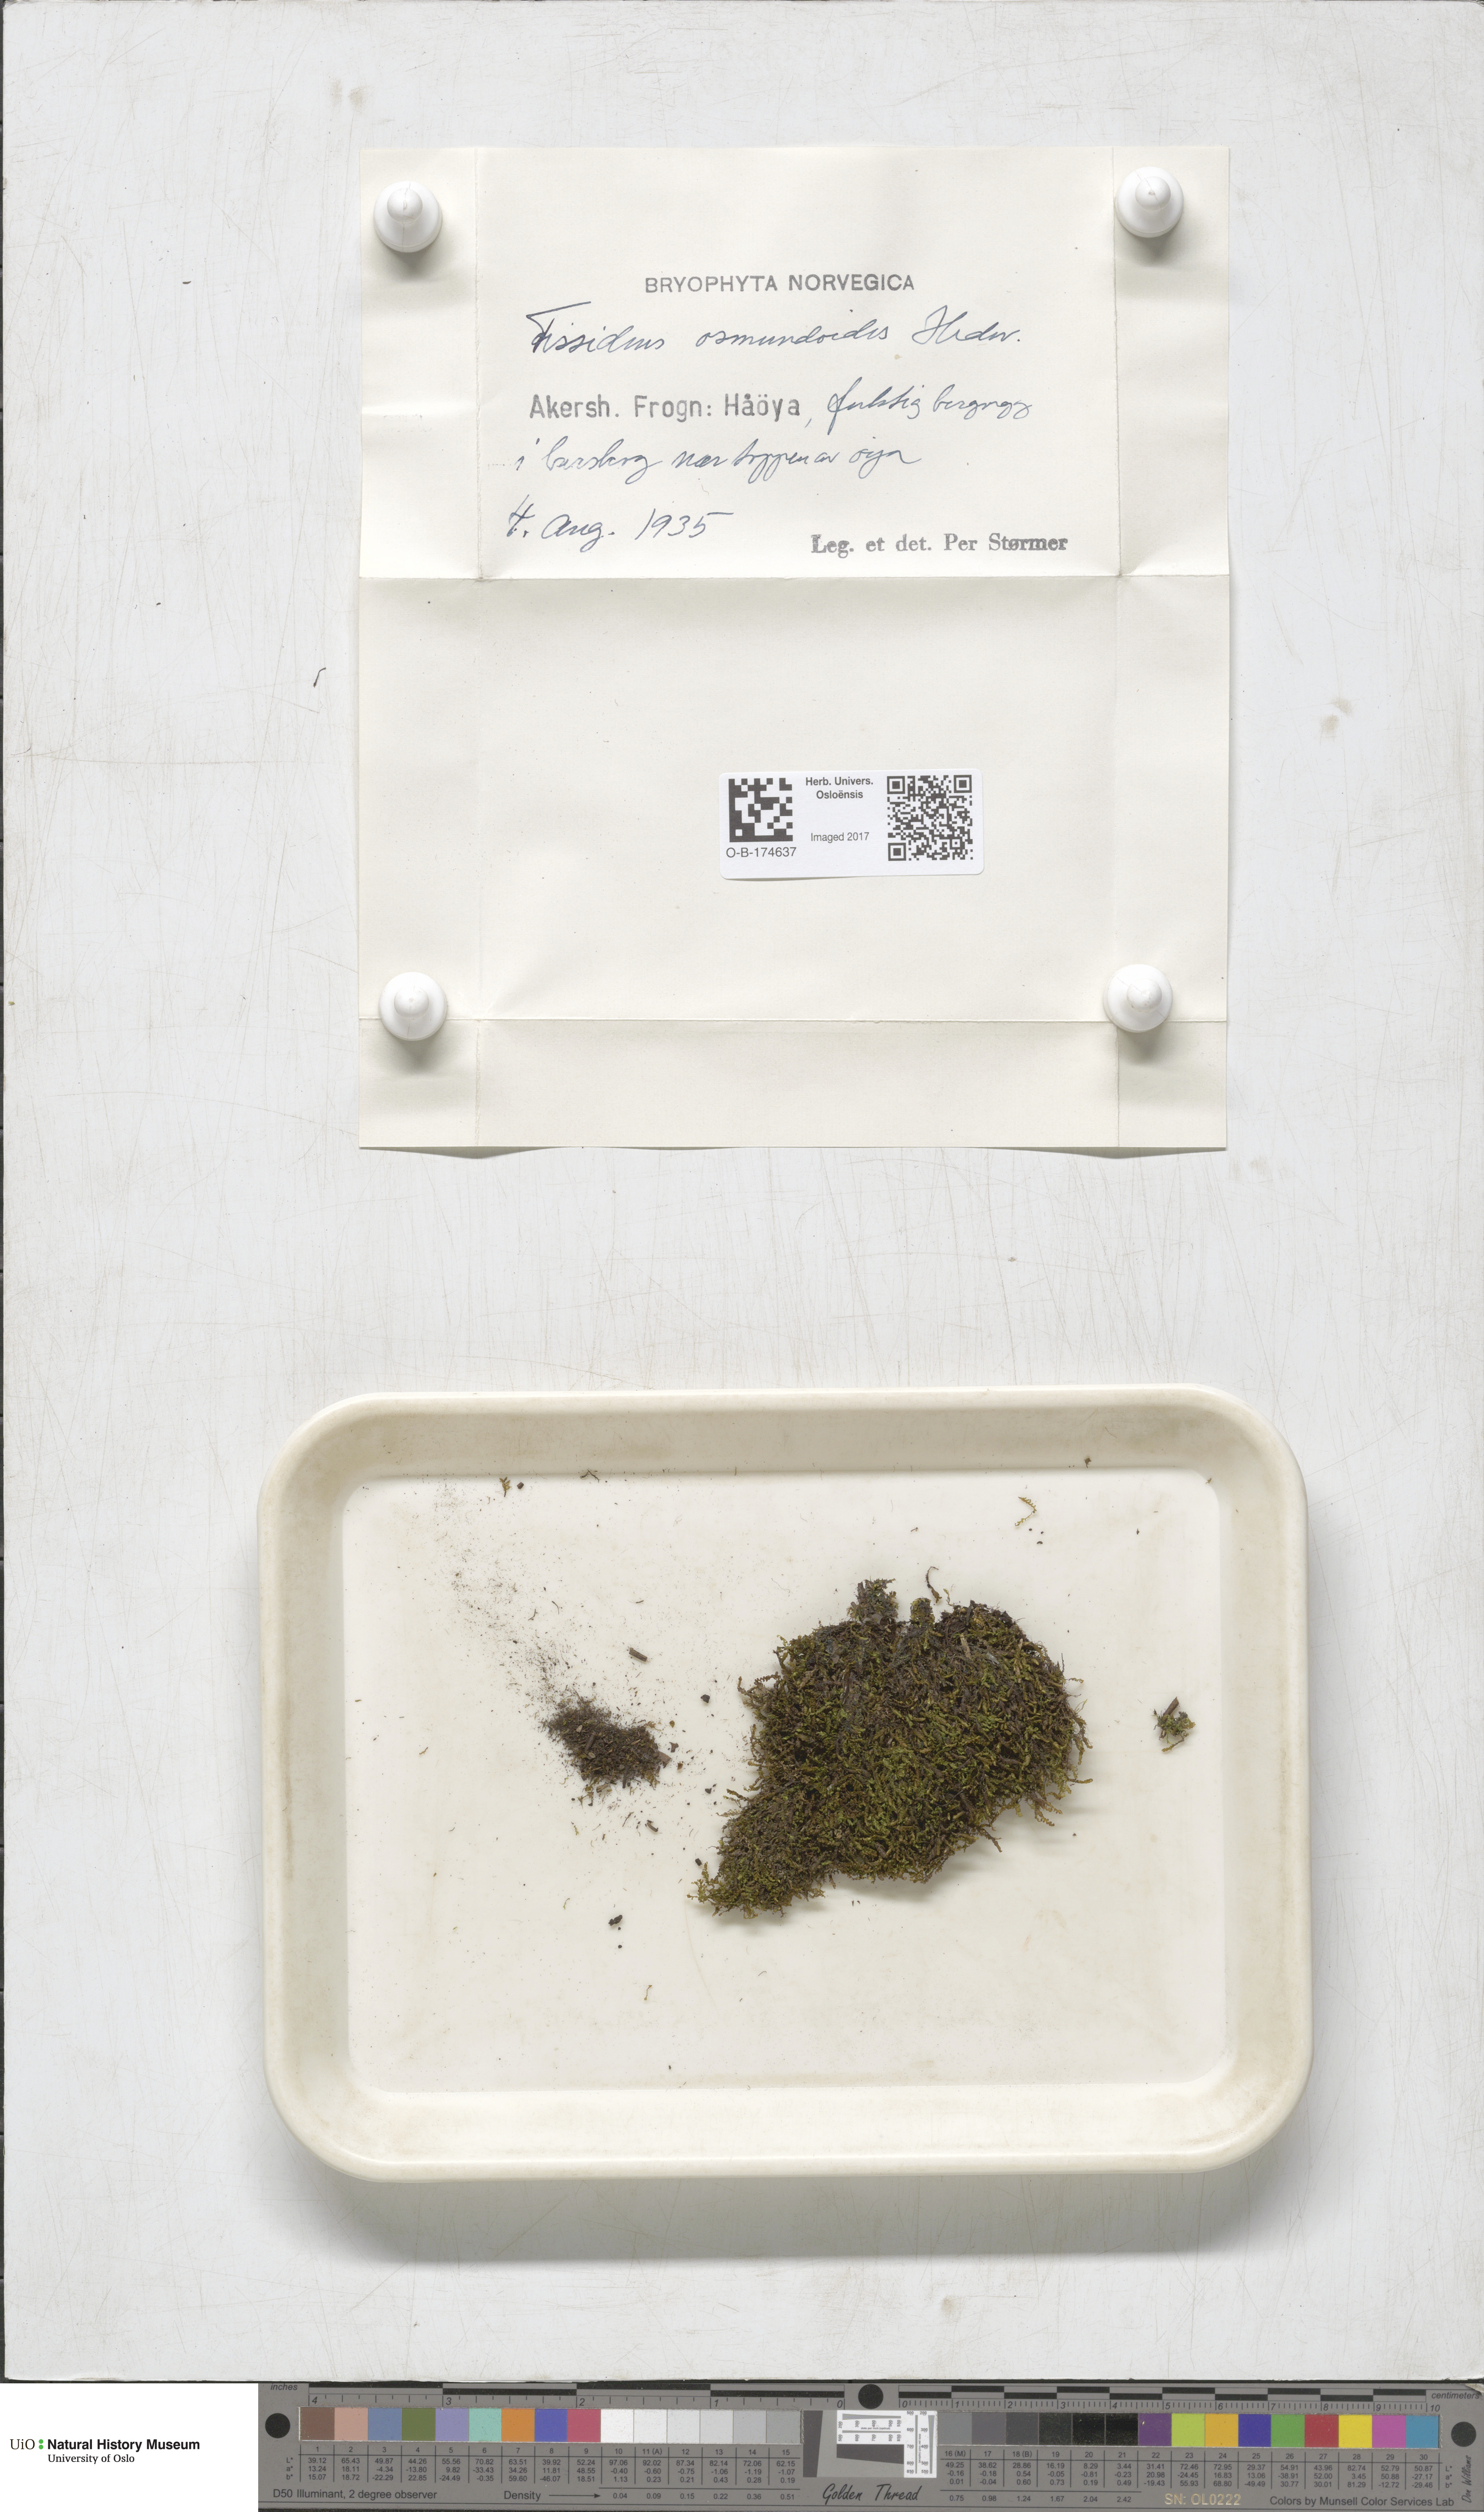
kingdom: Plantae
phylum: Bryophyta
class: Bryopsida
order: Dicranales
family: Fissidentaceae
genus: Fissidens
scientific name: Fissidens osmundoides
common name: Purple-stalked pocket moss
